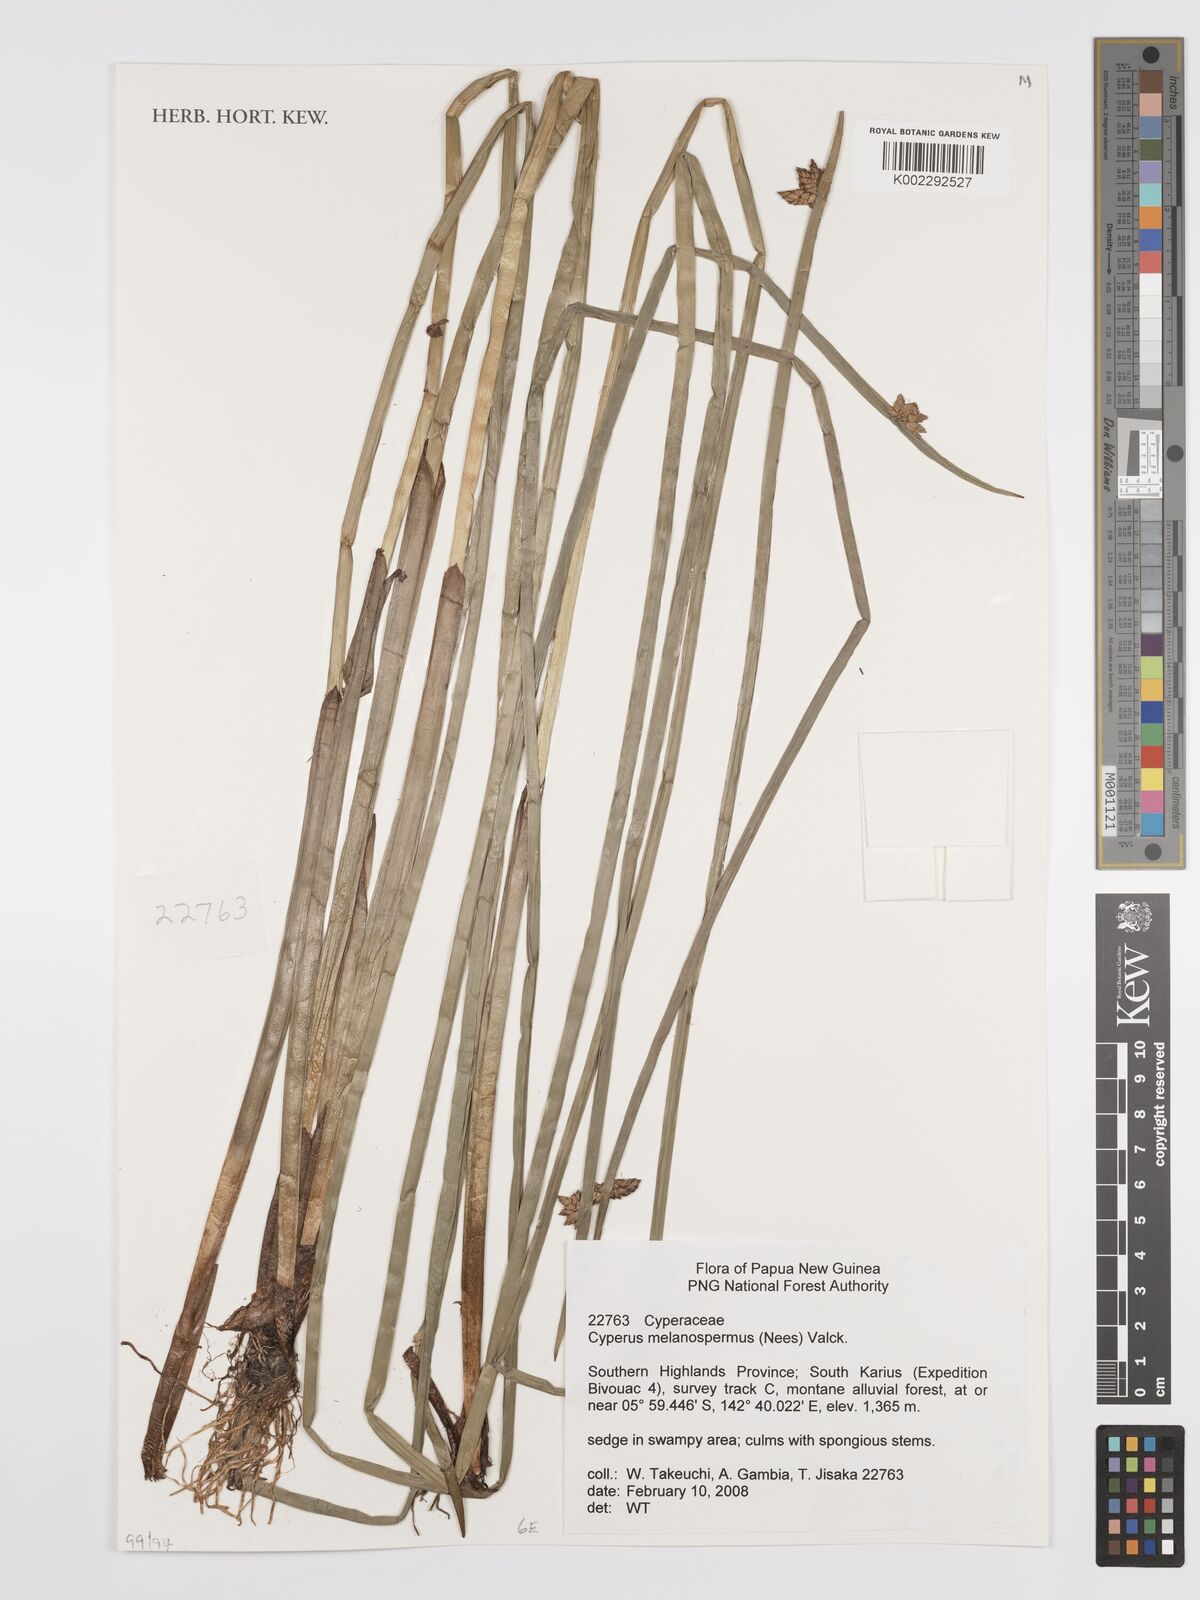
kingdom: Plantae
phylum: Tracheophyta
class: Liliopsida
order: Poales
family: Cyperaceae
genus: Cyperus
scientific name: Cyperus melanospermus
